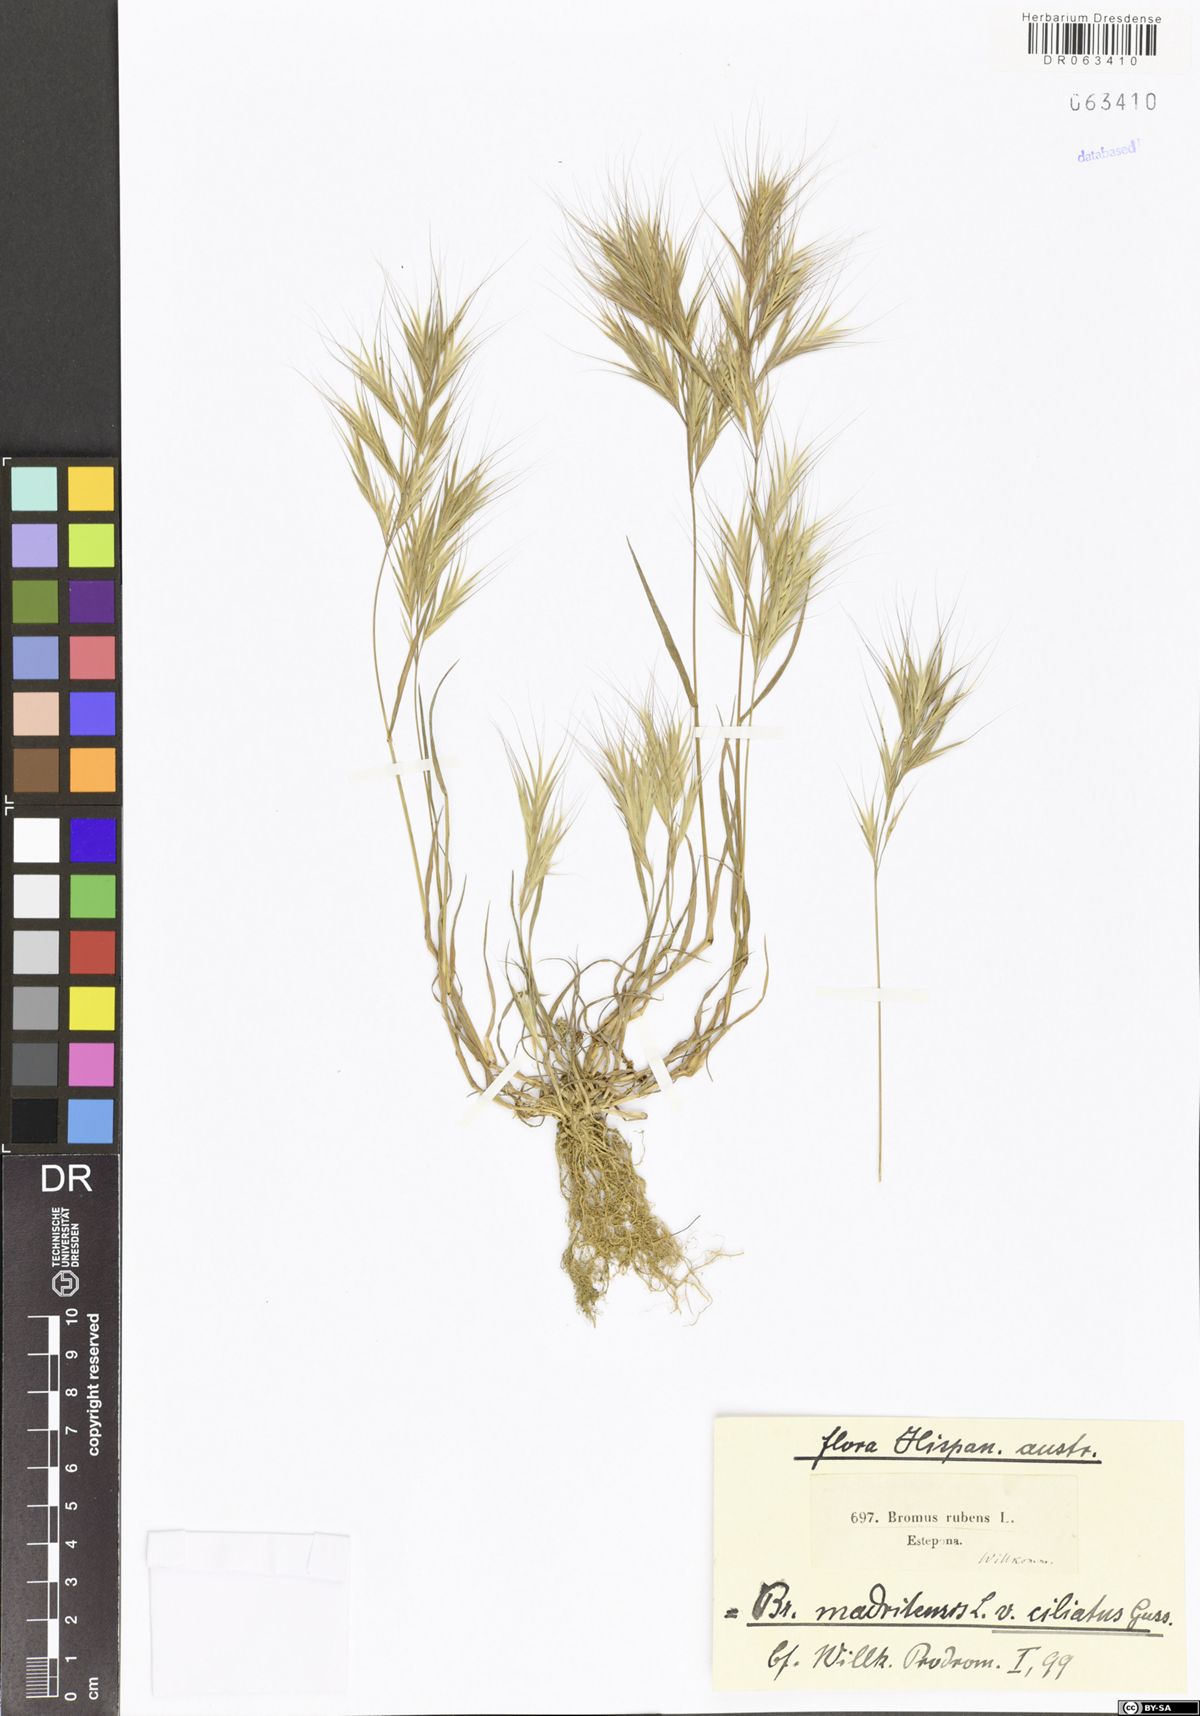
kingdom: Plantae
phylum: Tracheophyta
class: Liliopsida
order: Poales
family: Poaceae
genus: Bromus
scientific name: Bromus madritensis
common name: Compact brome
